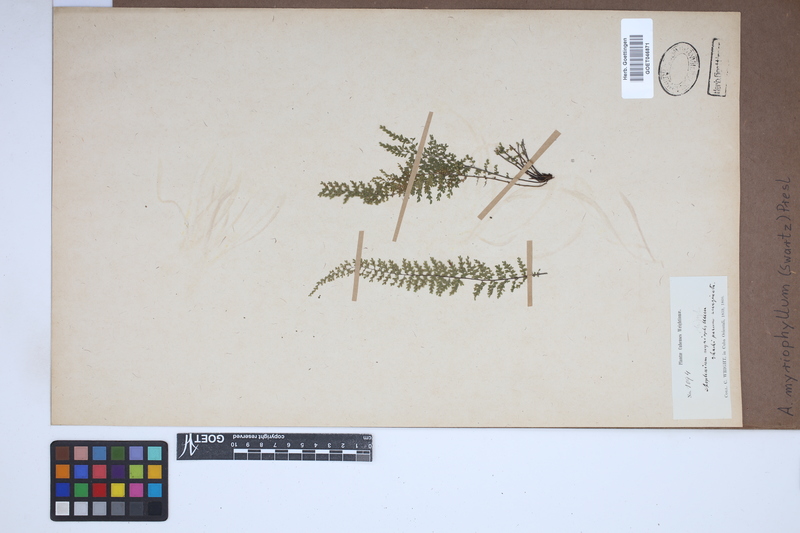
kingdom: Plantae
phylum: Tracheophyta
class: Polypodiopsida
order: Polypodiales
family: Aspleniaceae
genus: Asplenium
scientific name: Asplenium myriophyllum
